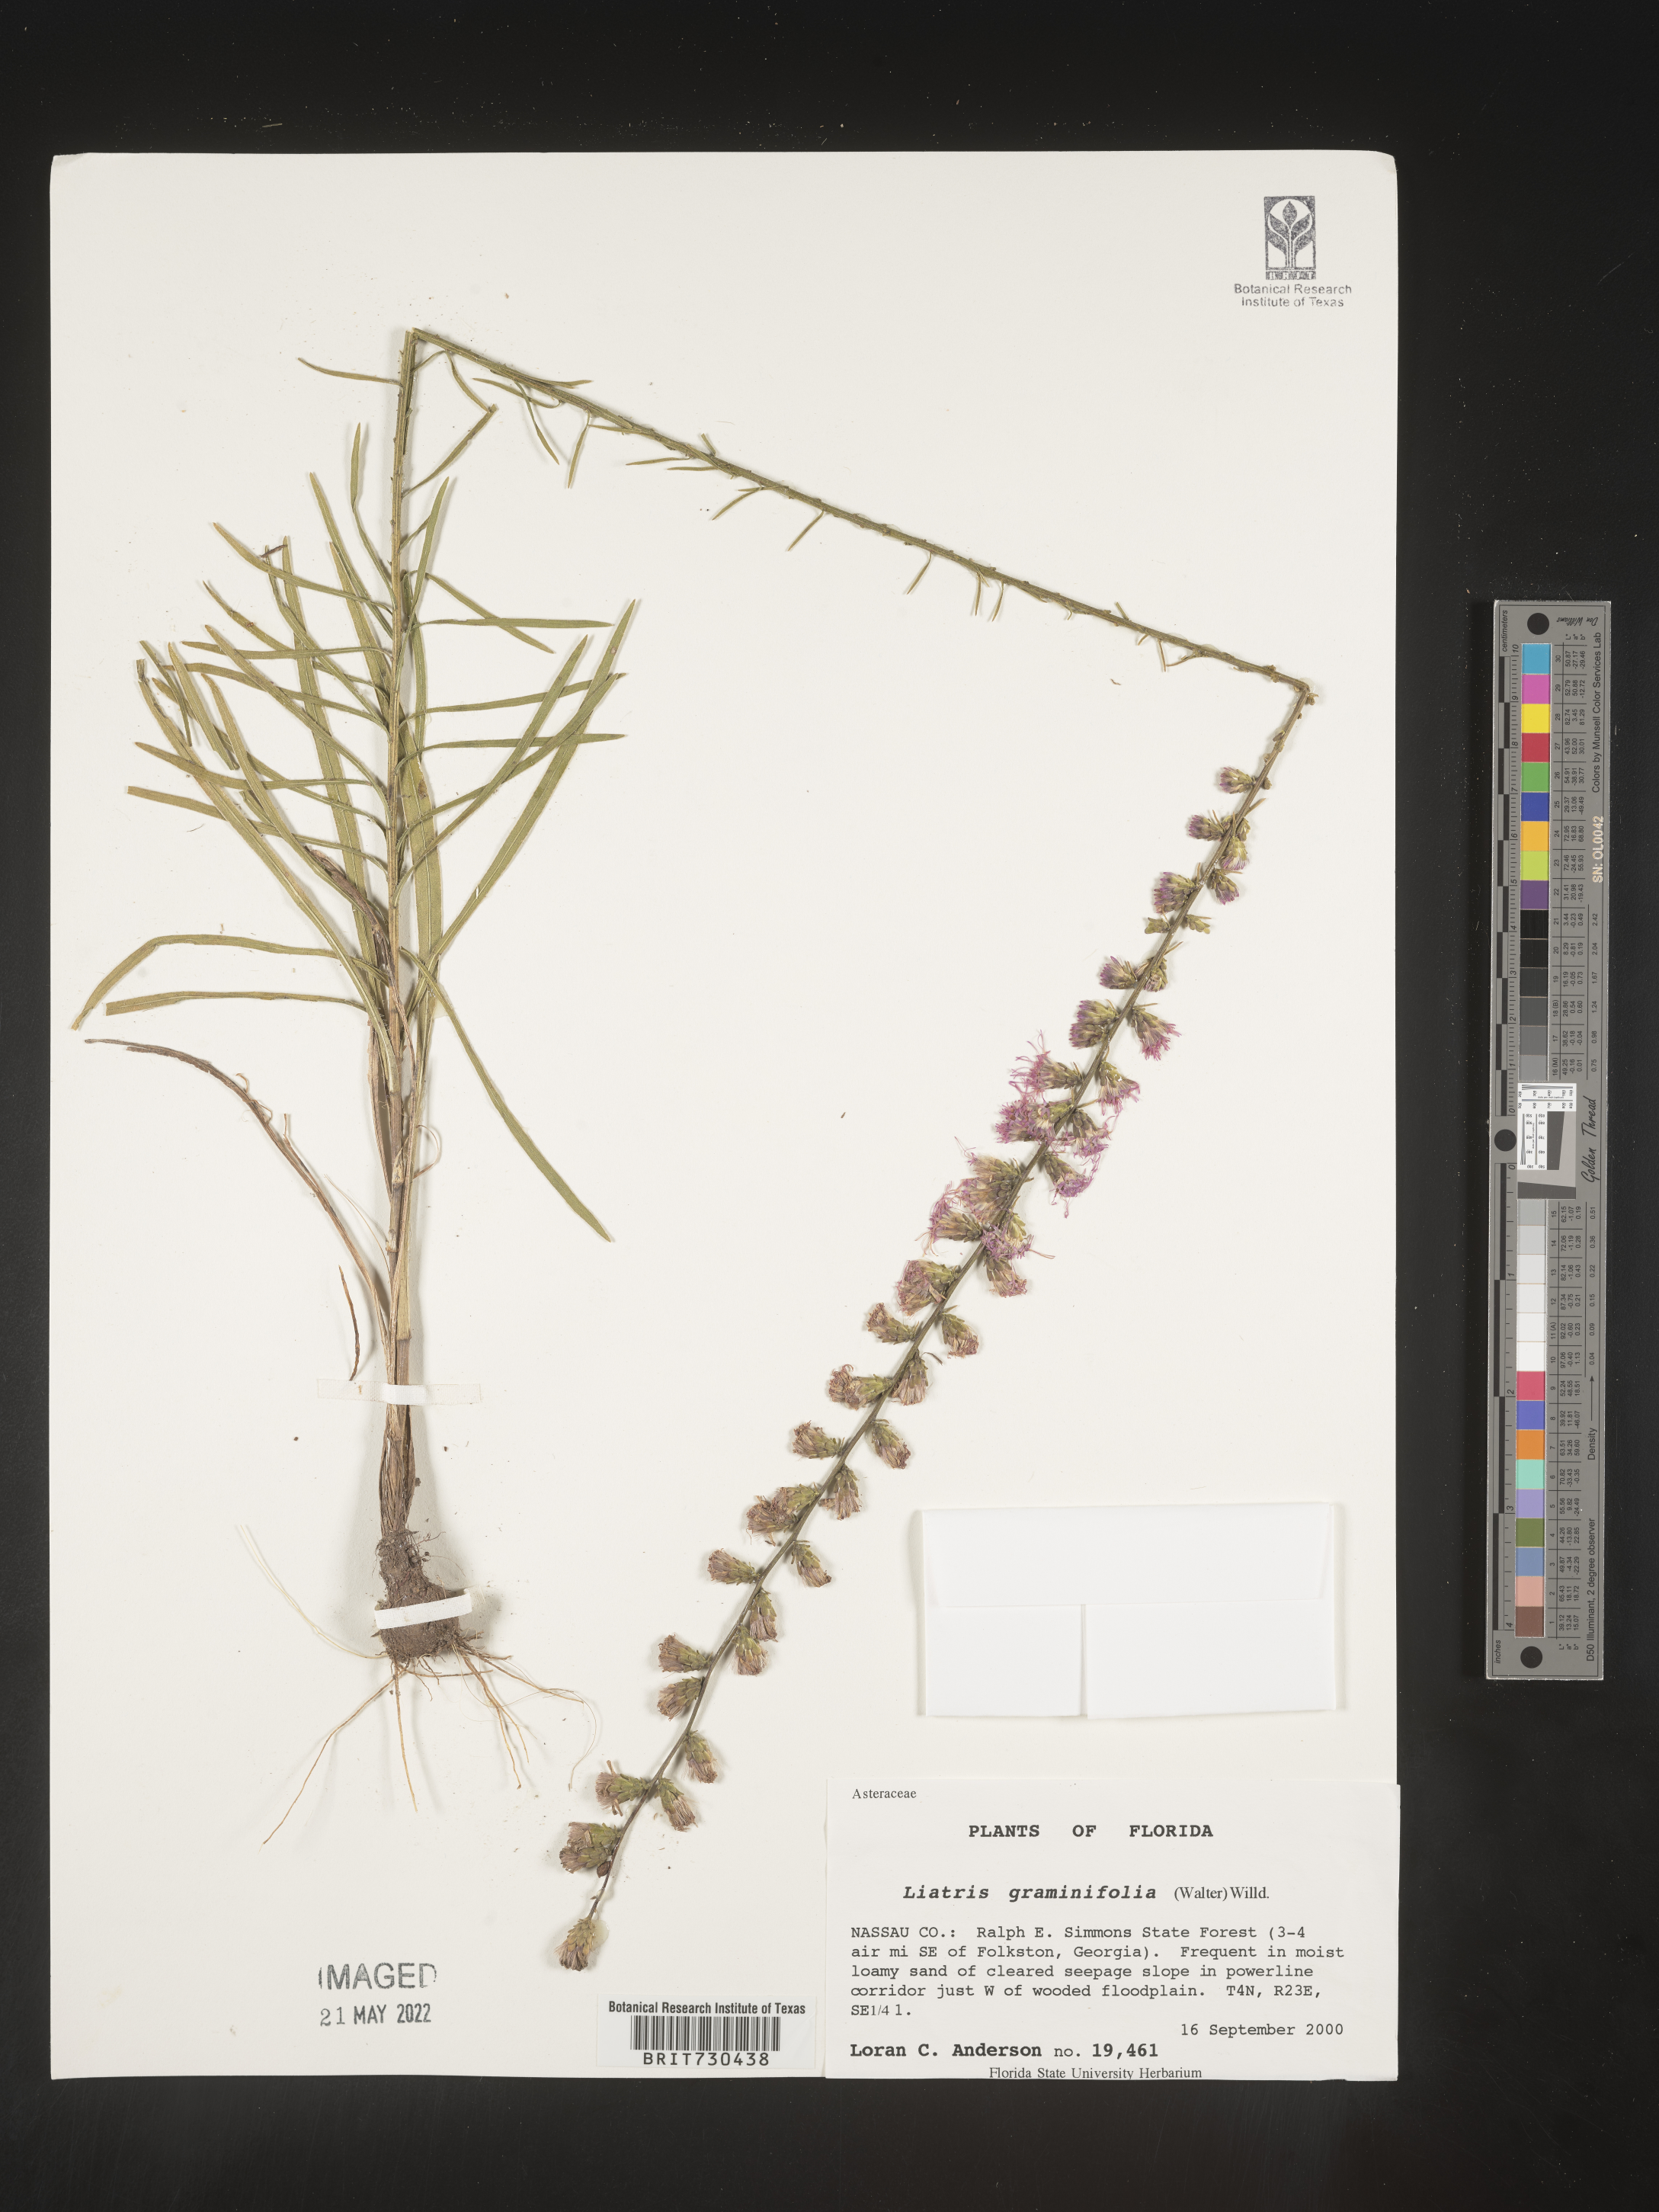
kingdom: Plantae
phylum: Tracheophyta
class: Magnoliopsida
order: Asterales
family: Asteraceae
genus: Liatris
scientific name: Liatris elegantula
